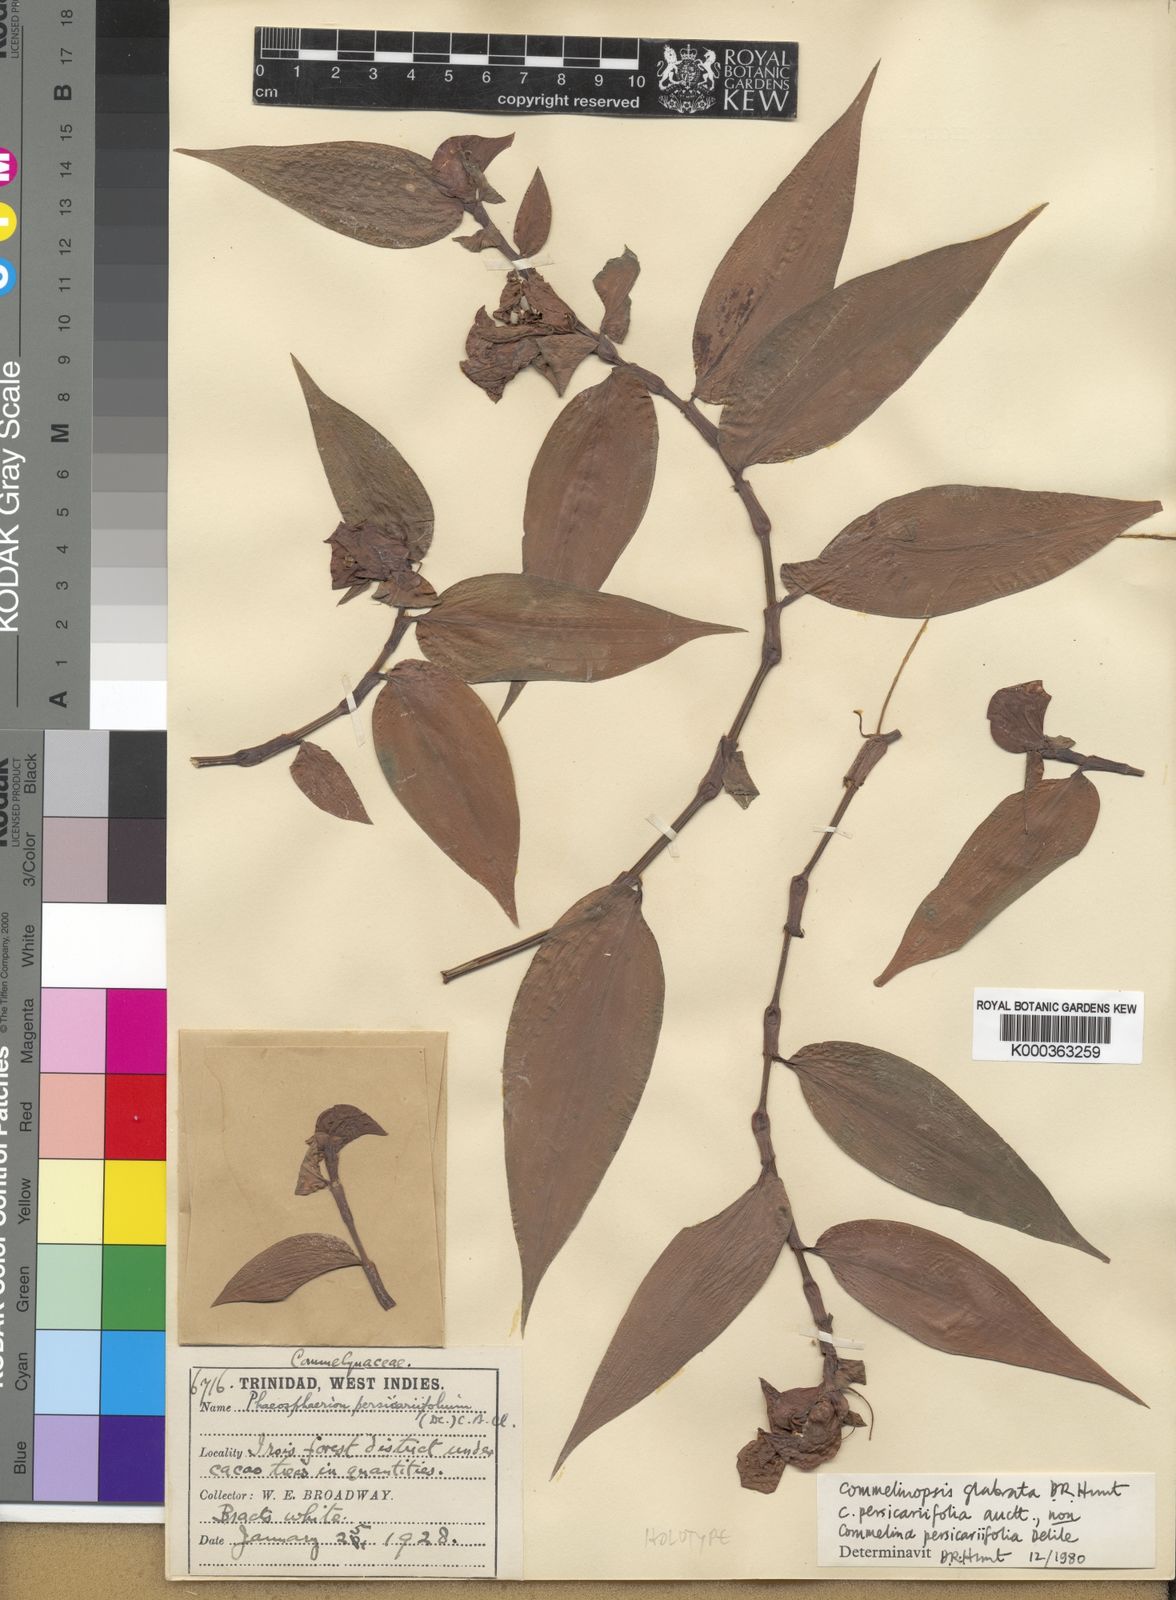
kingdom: Plantae
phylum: Tracheophyta
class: Liliopsida
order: Commelinales
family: Commelinaceae
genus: Commelina
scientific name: Commelina rufipes
